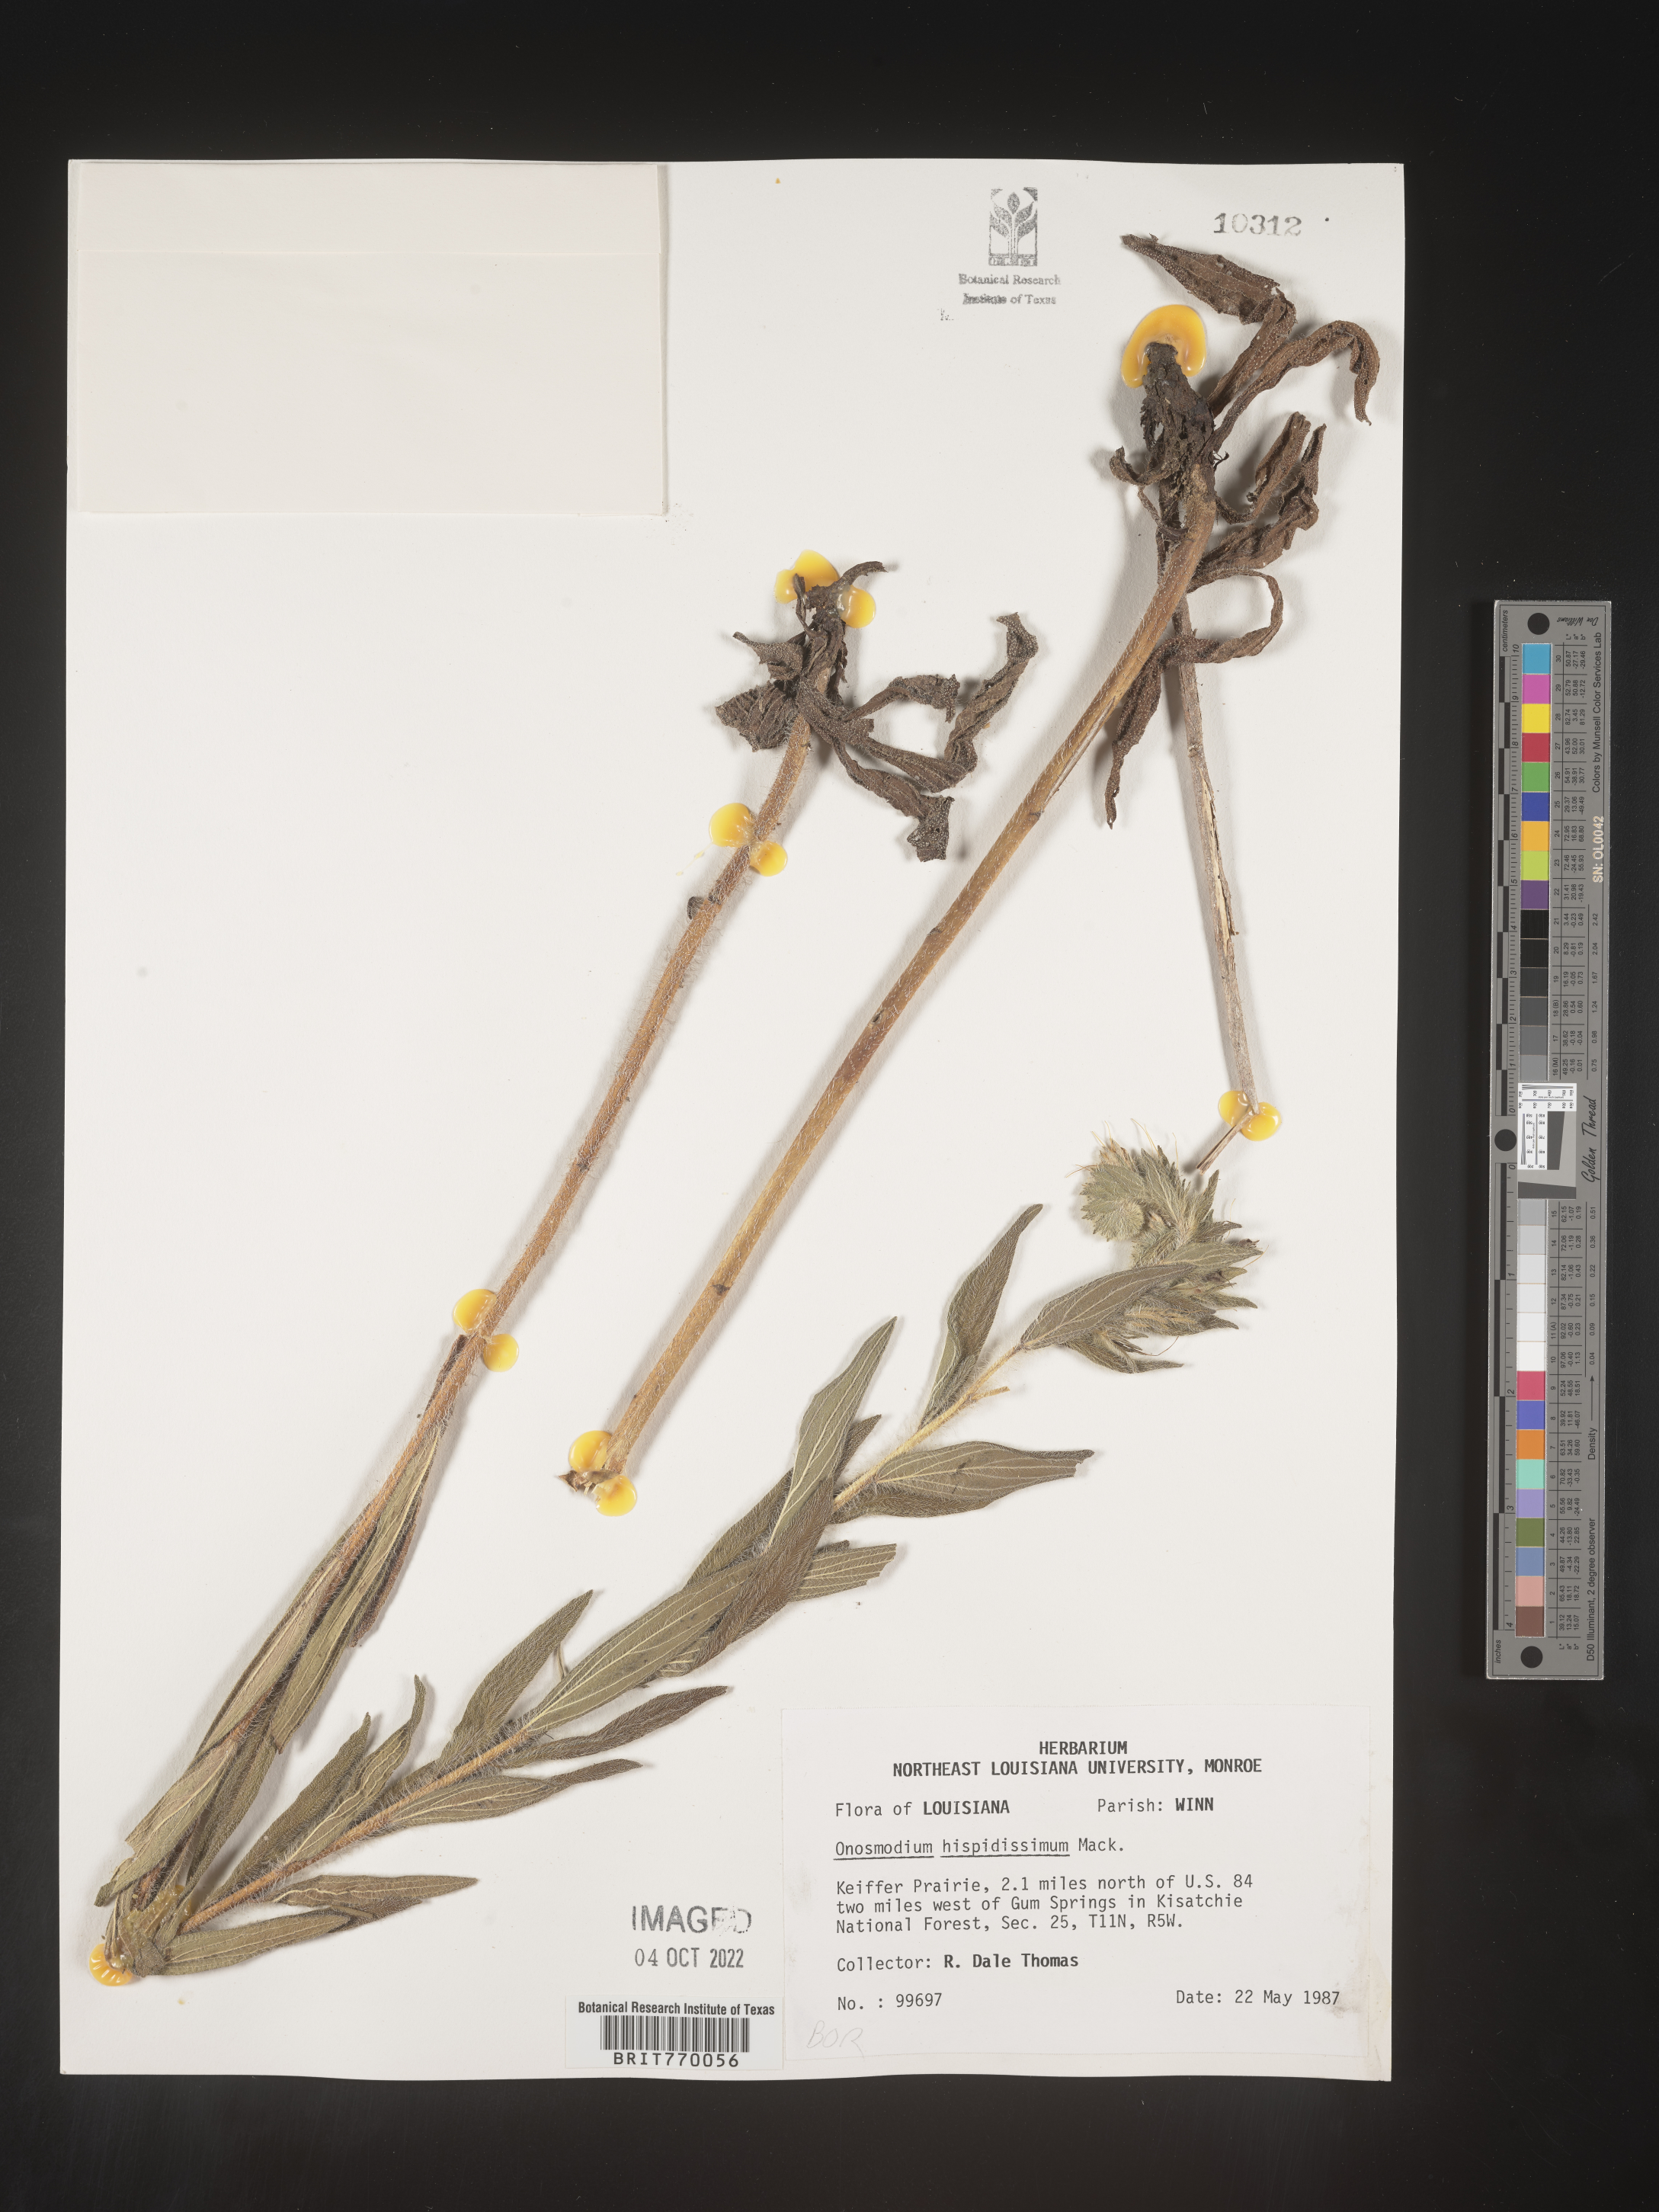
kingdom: Plantae
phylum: Tracheophyta
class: Magnoliopsida
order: Boraginales
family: Boraginaceae
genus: Lithospermum
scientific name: Lithospermum parviflorum
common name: Hairy false gromwell
